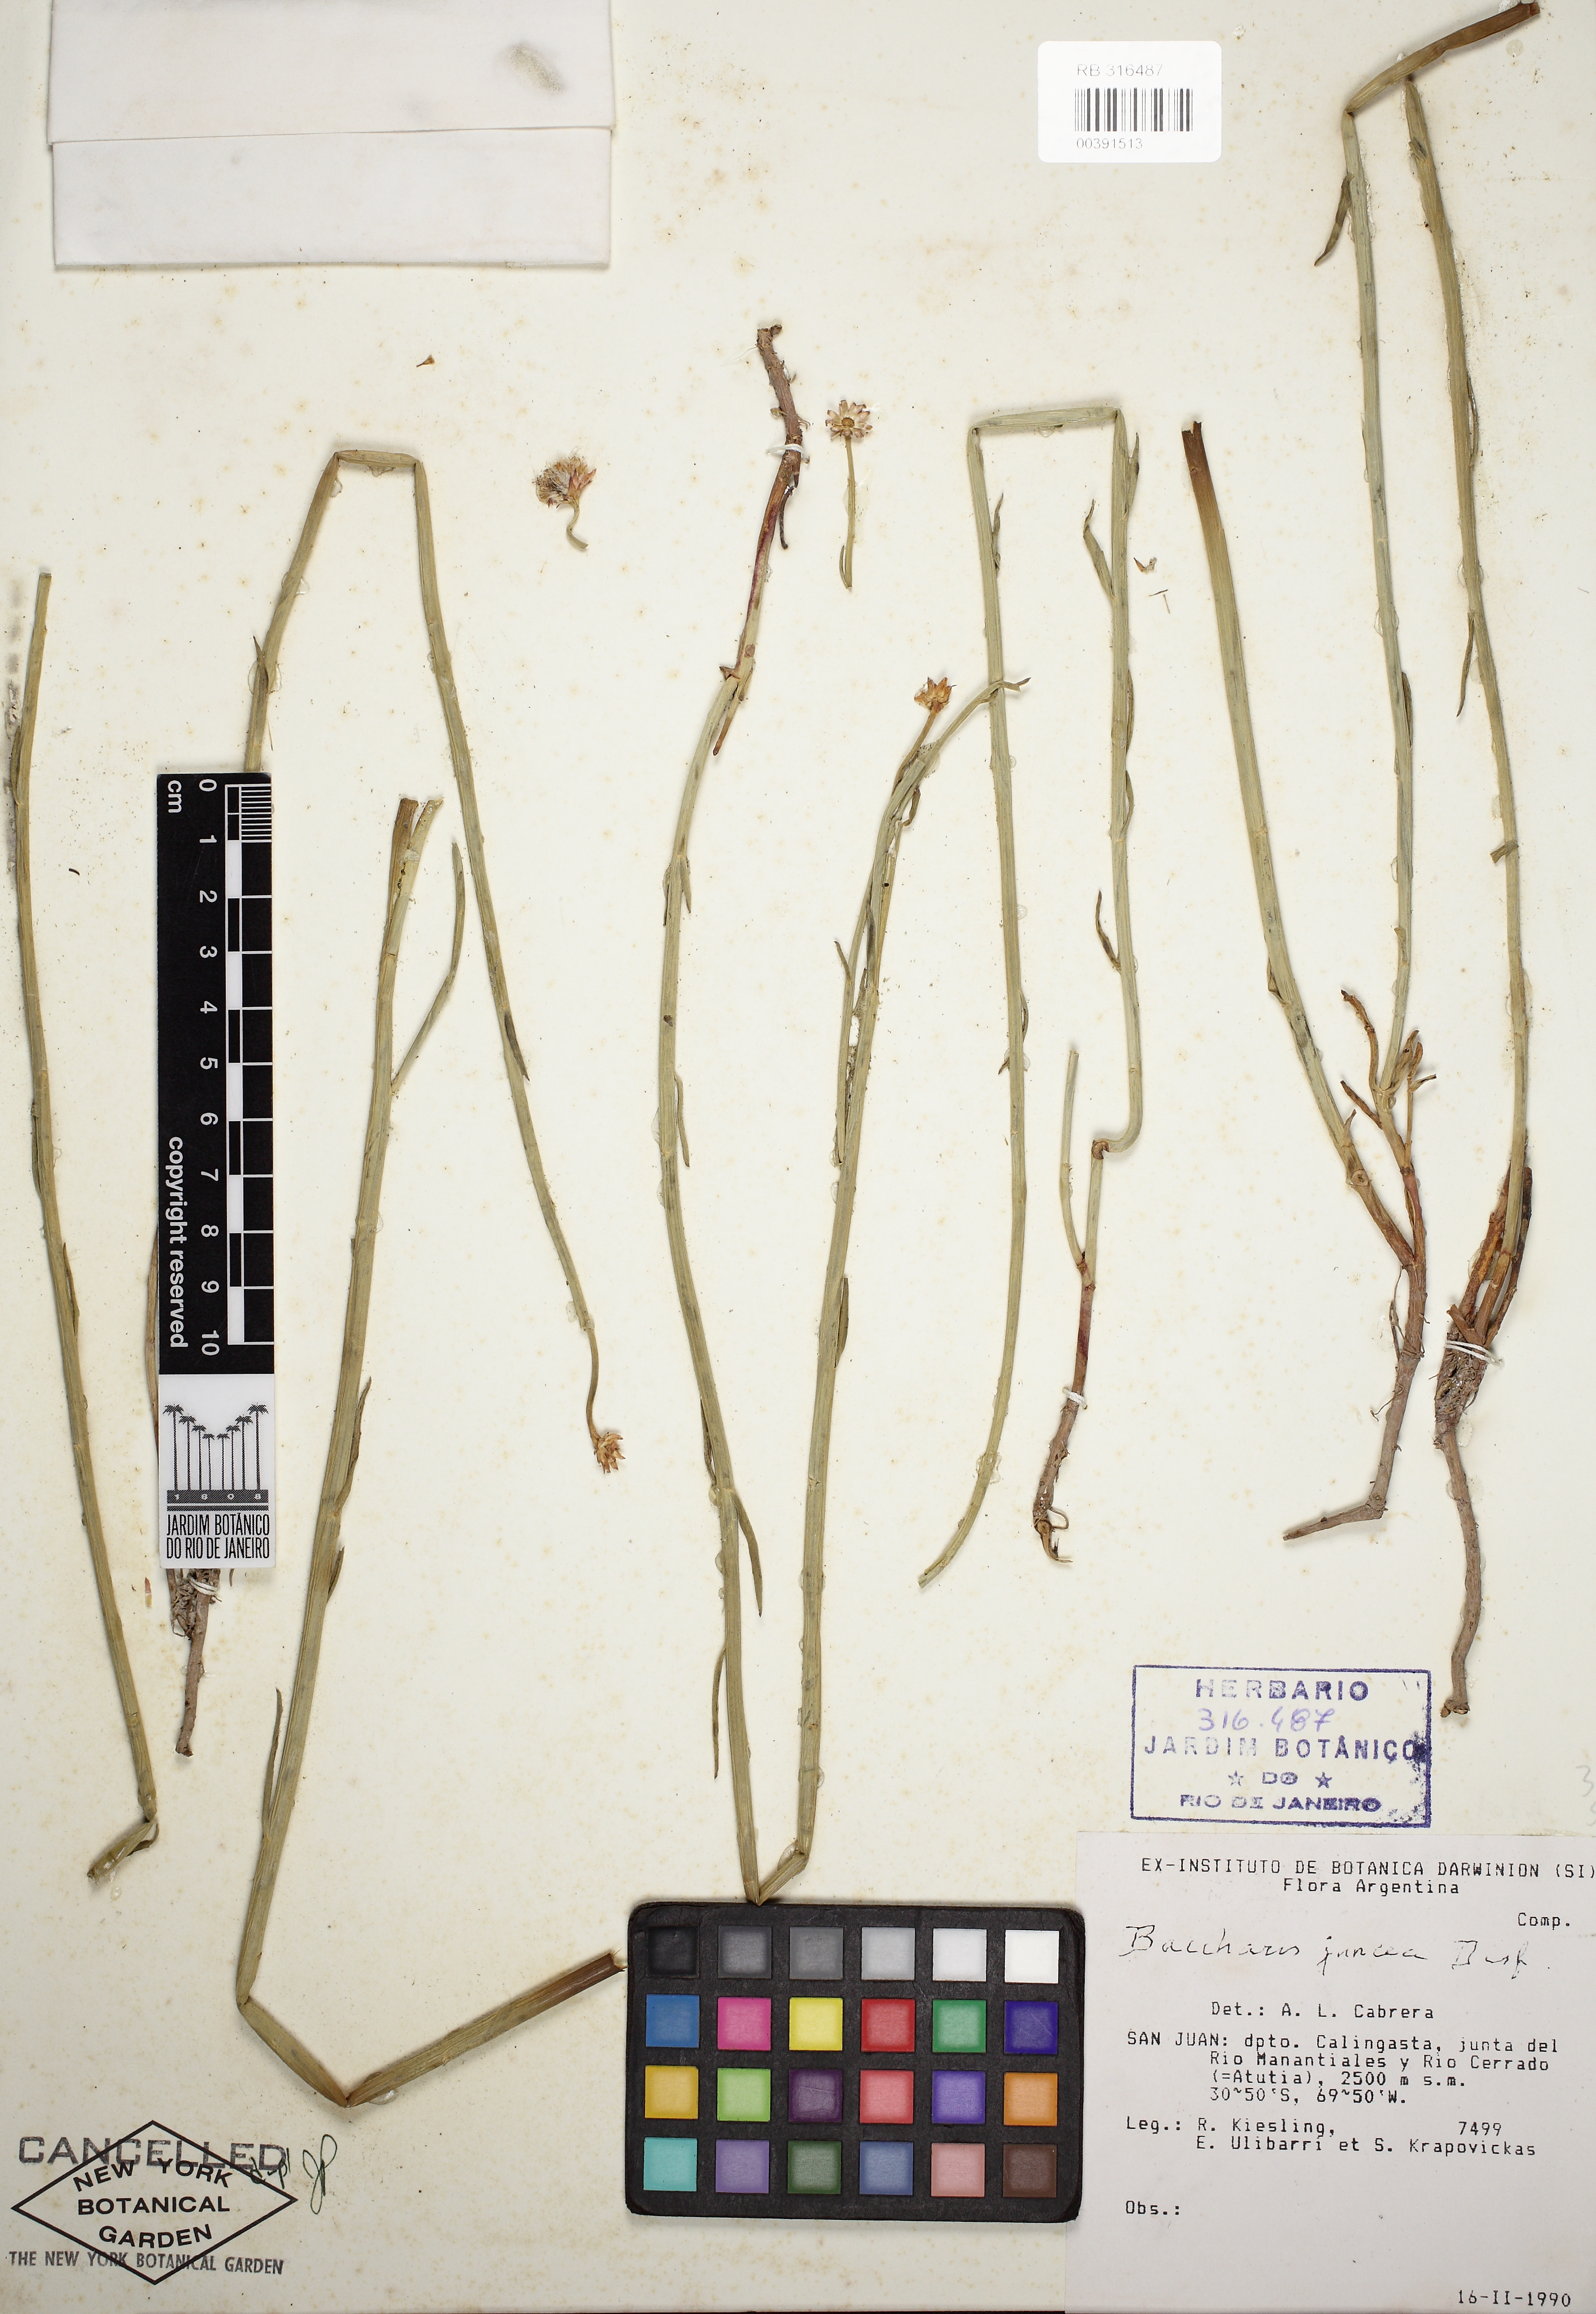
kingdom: Plantae
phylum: Tracheophyta
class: Magnoliopsida
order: Asterales
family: Asteraceae
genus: Baccharis
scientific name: Baccharis juncea
